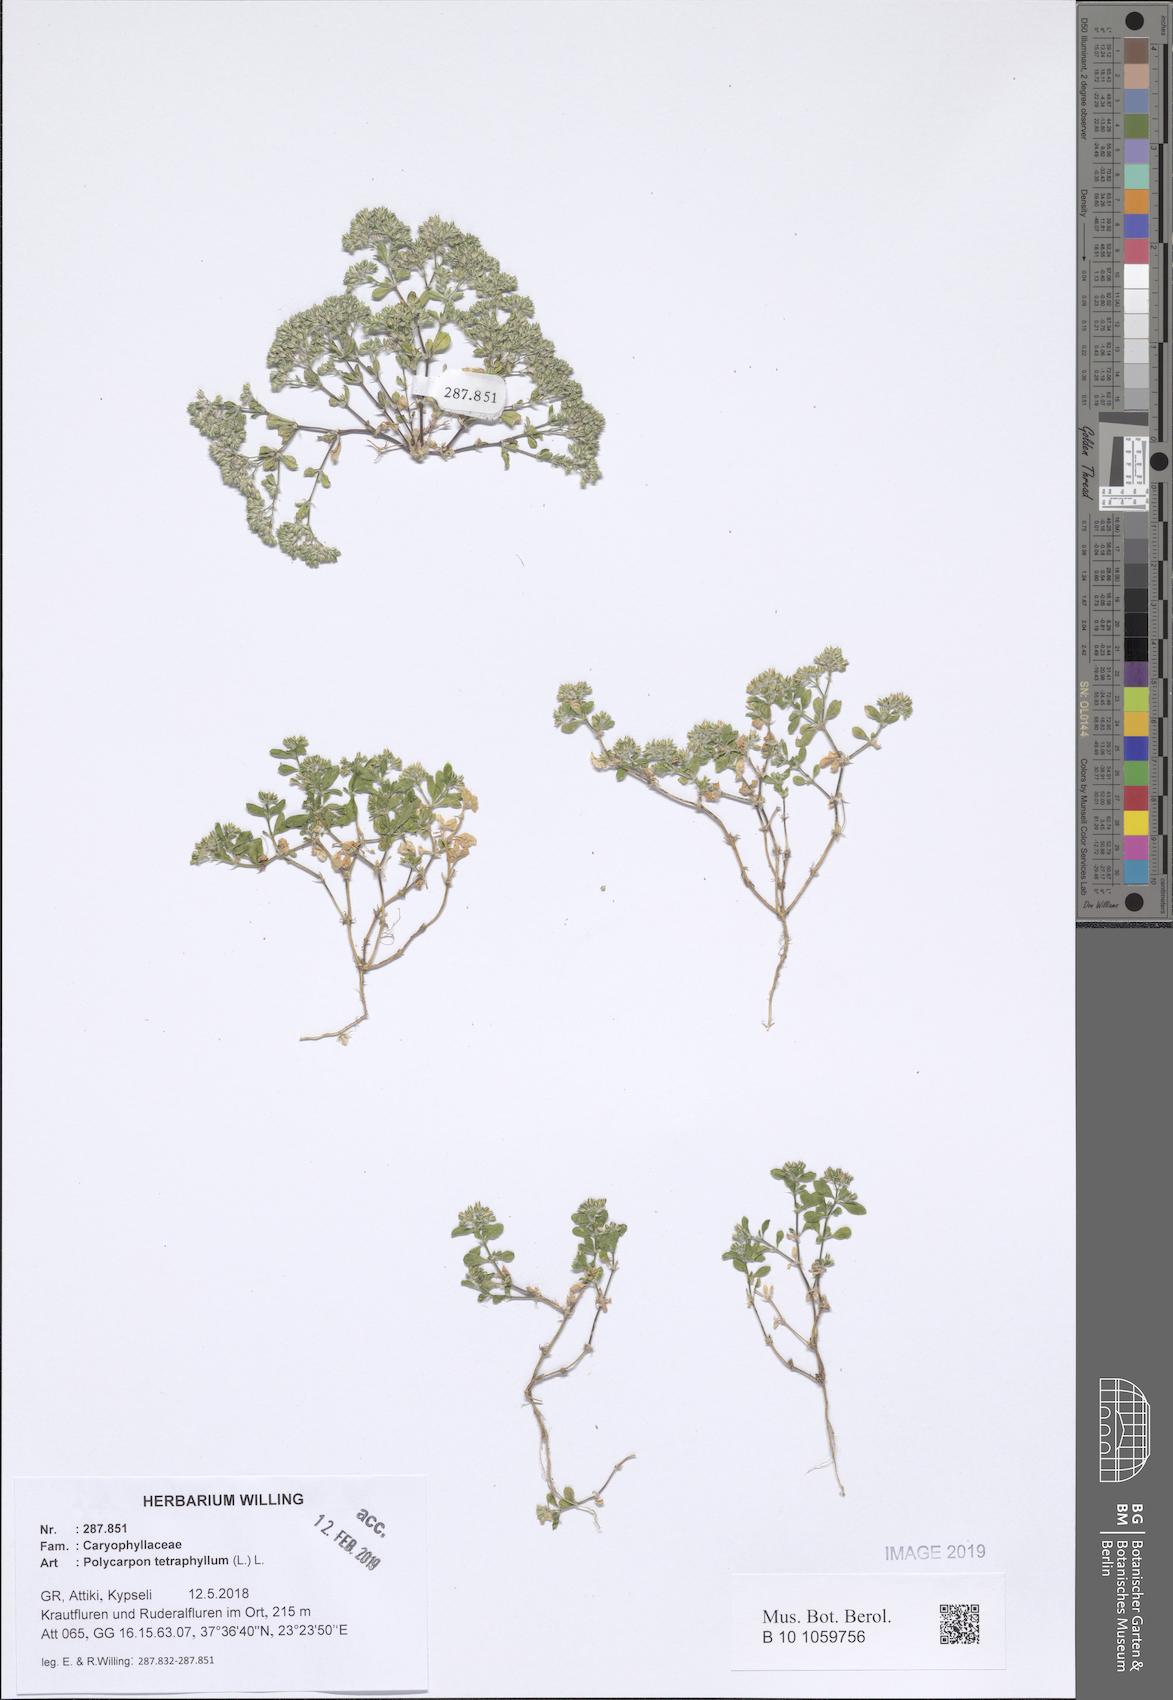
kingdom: Plantae
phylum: Tracheophyta
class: Magnoliopsida
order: Caryophyllales
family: Caryophyllaceae
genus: Polycarpon
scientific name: Polycarpon tetraphyllum
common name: Four-leaved all-seed
